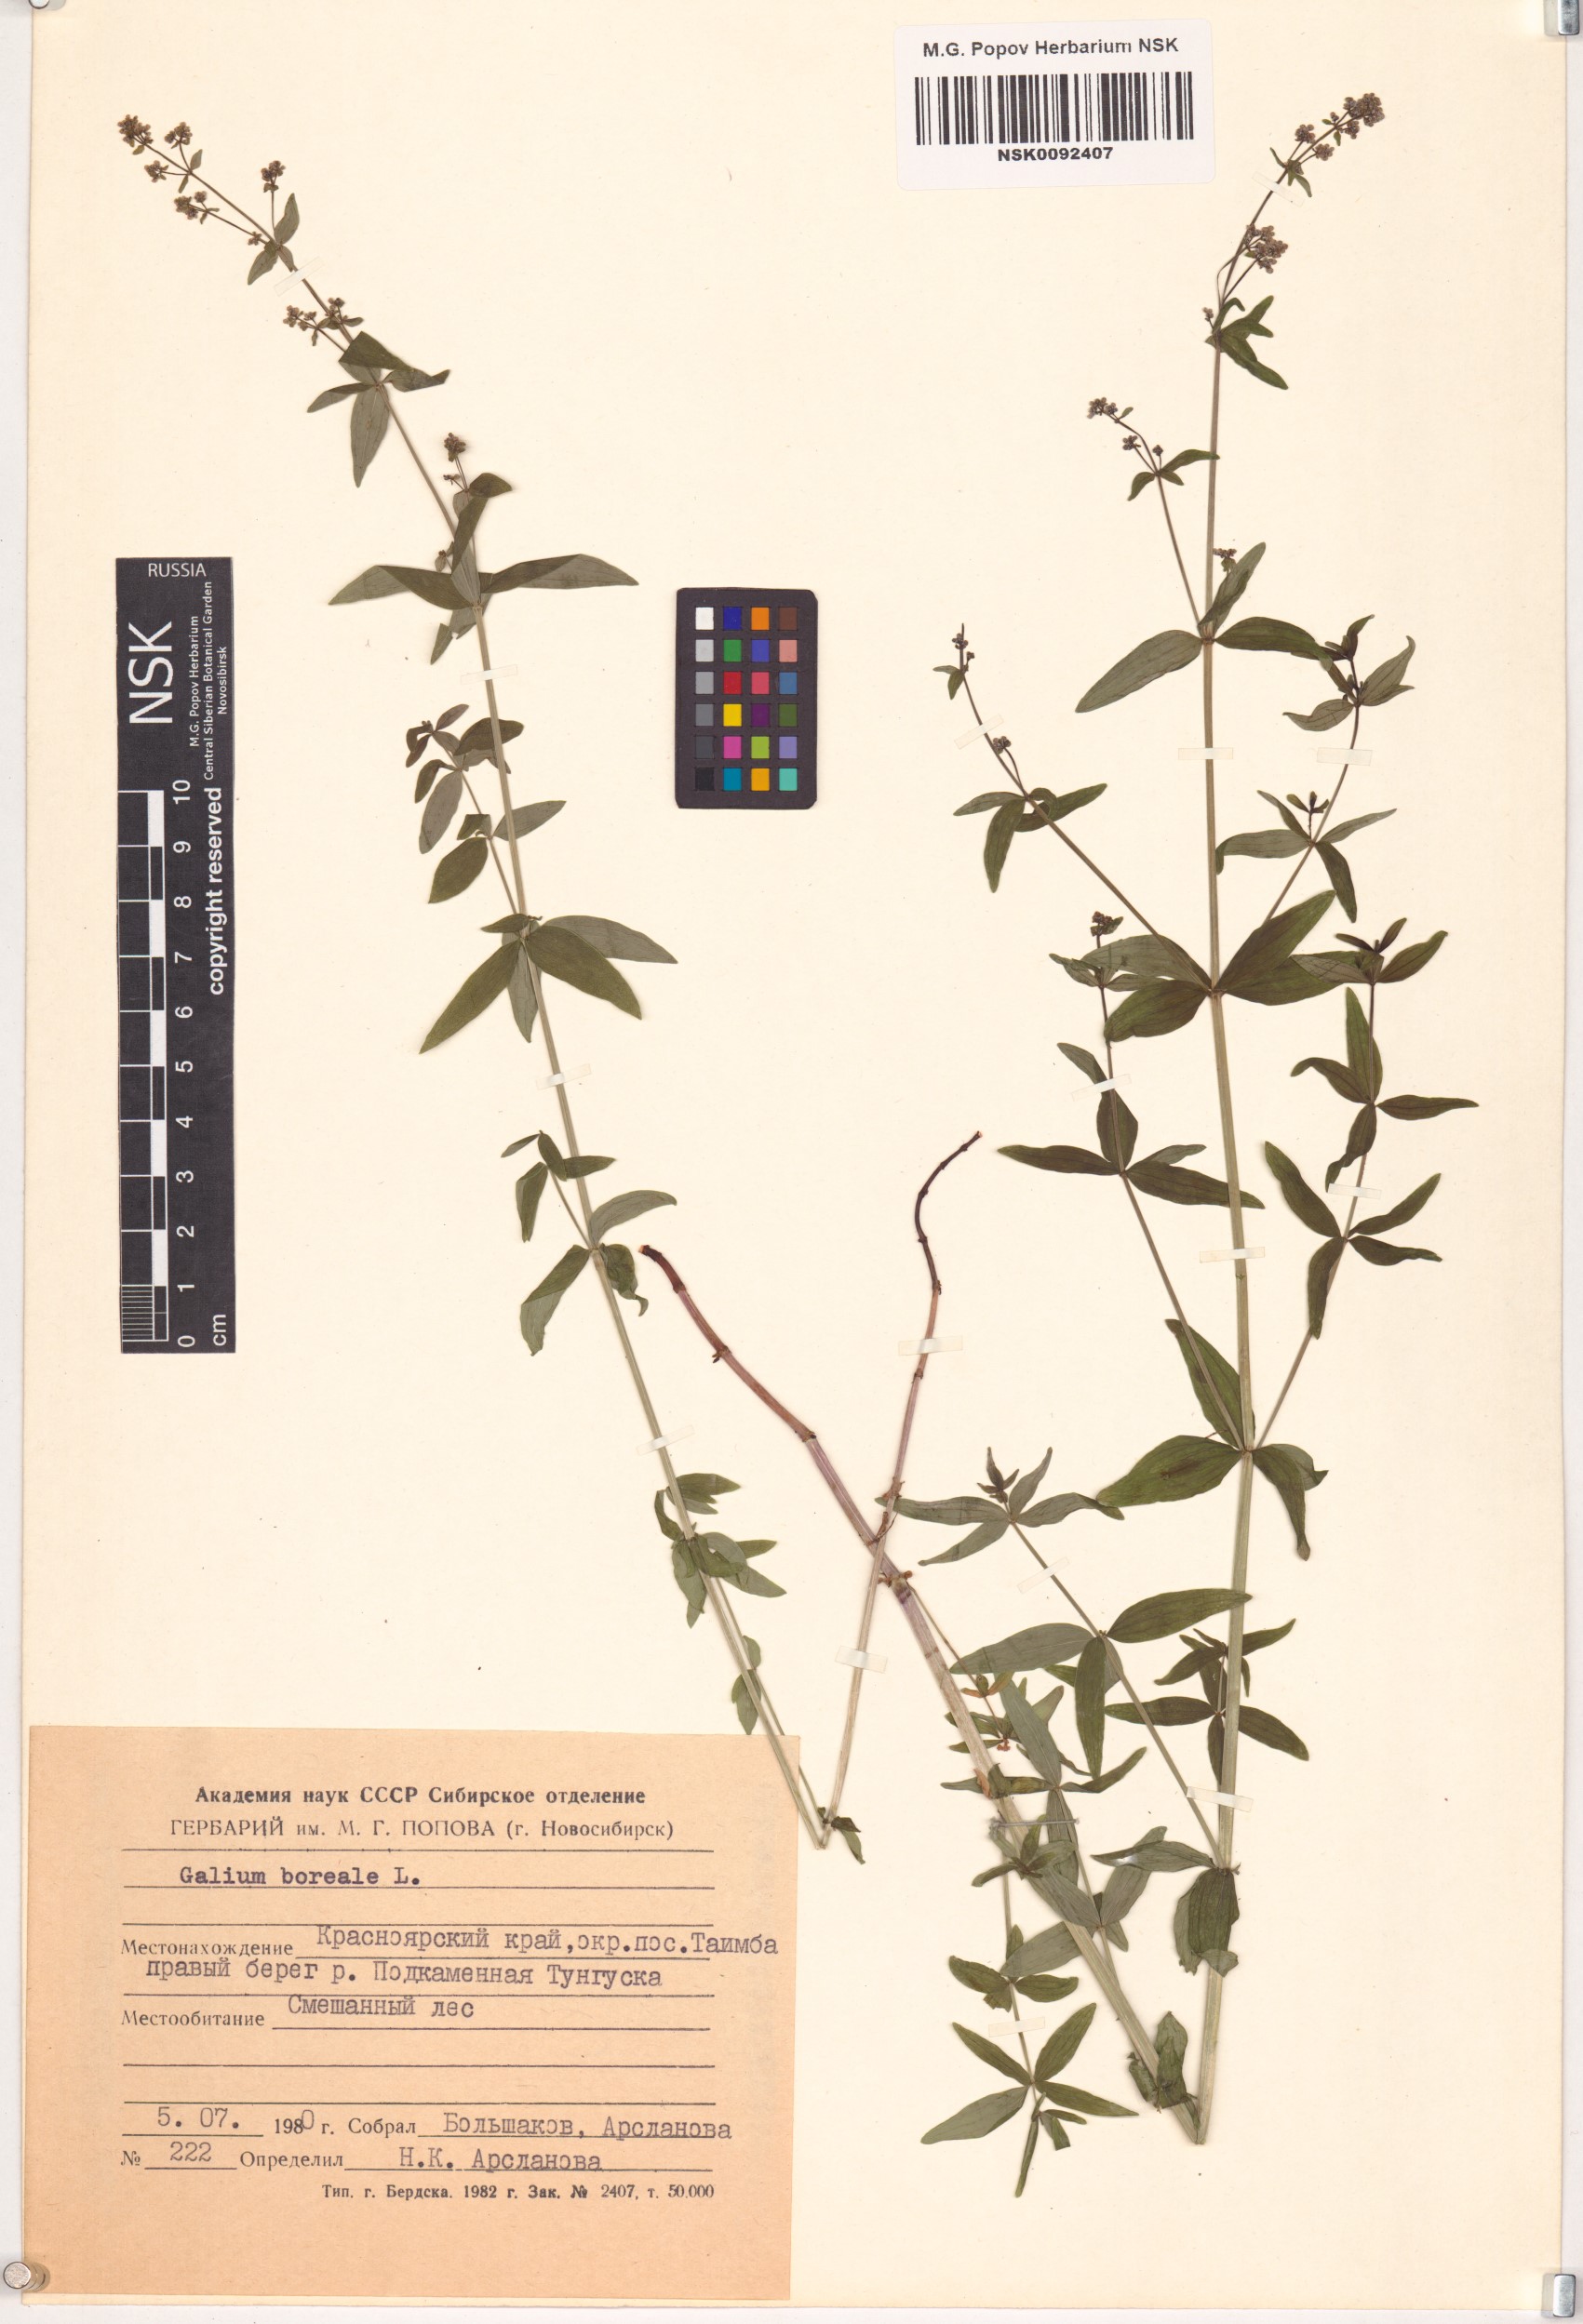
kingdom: Plantae
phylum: Tracheophyta
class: Magnoliopsida
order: Gentianales
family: Rubiaceae
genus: Galium
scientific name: Galium boreale
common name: Northern bedstraw
